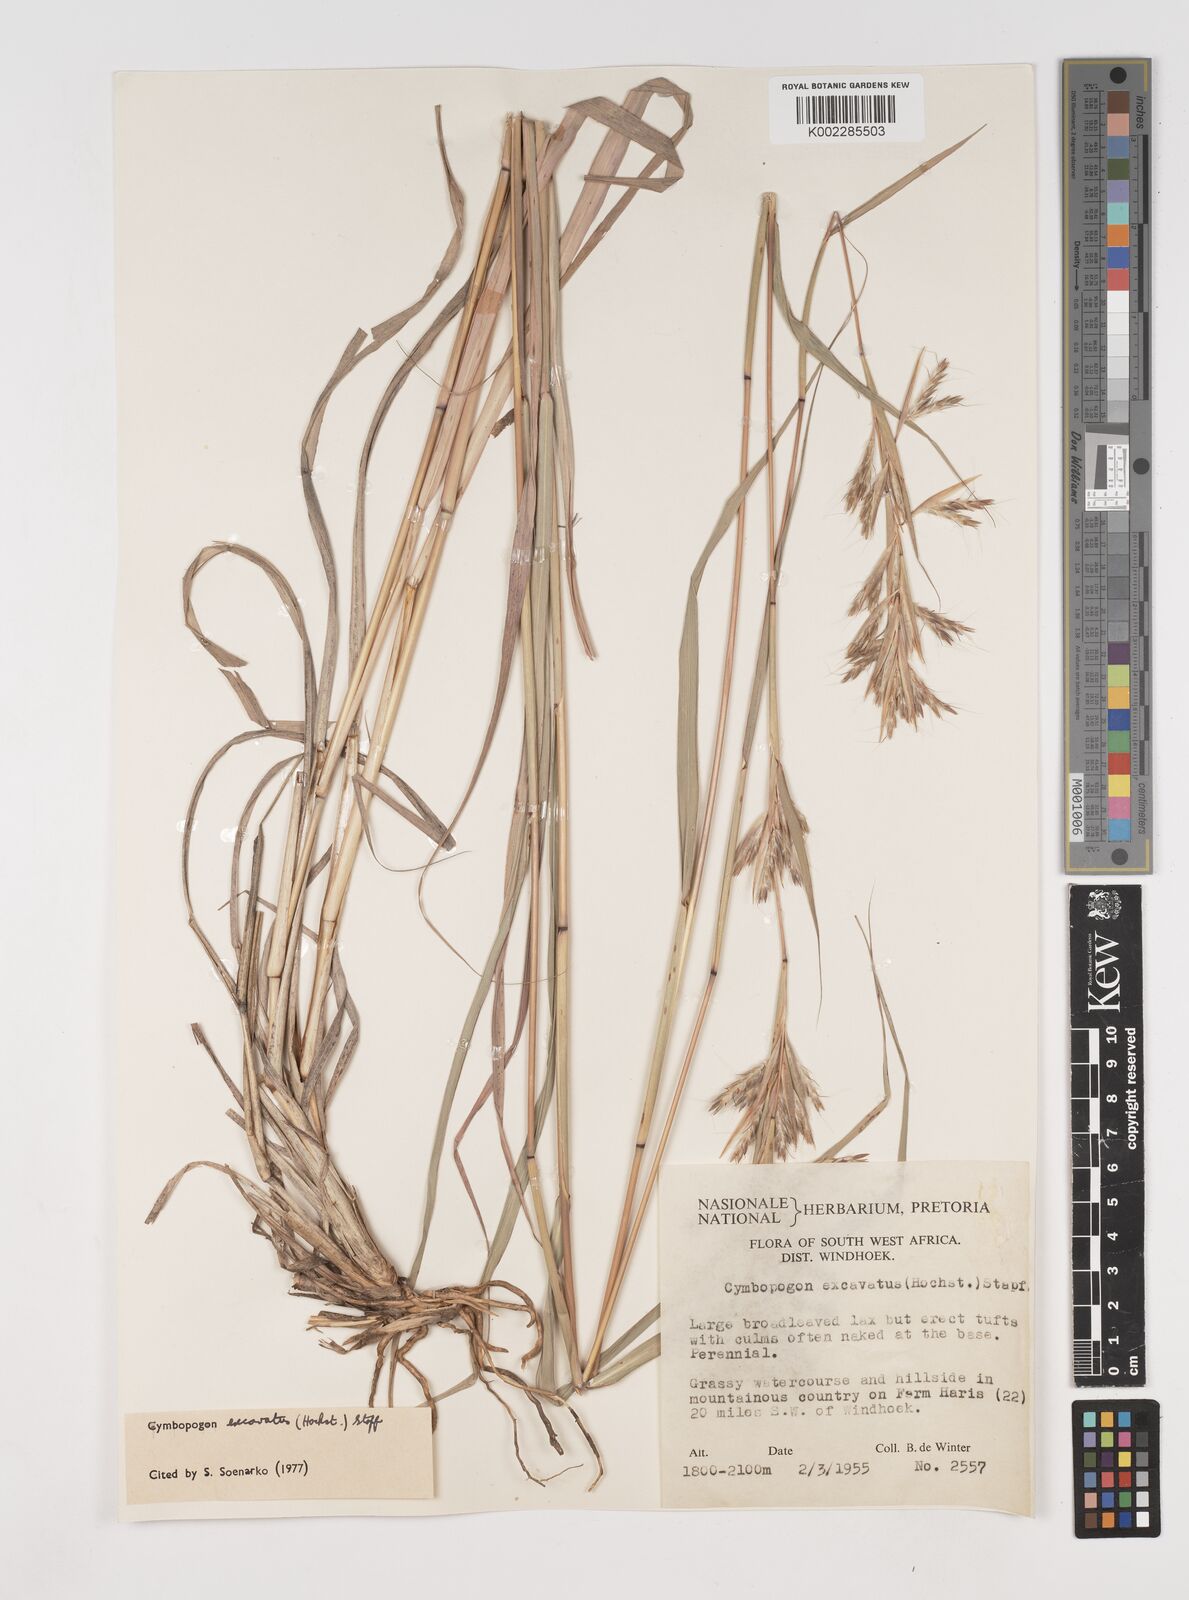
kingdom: Plantae
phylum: Tracheophyta
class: Liliopsida
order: Poales
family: Poaceae
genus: Cymbopogon
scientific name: Cymbopogon caesius
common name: Kachi grass
